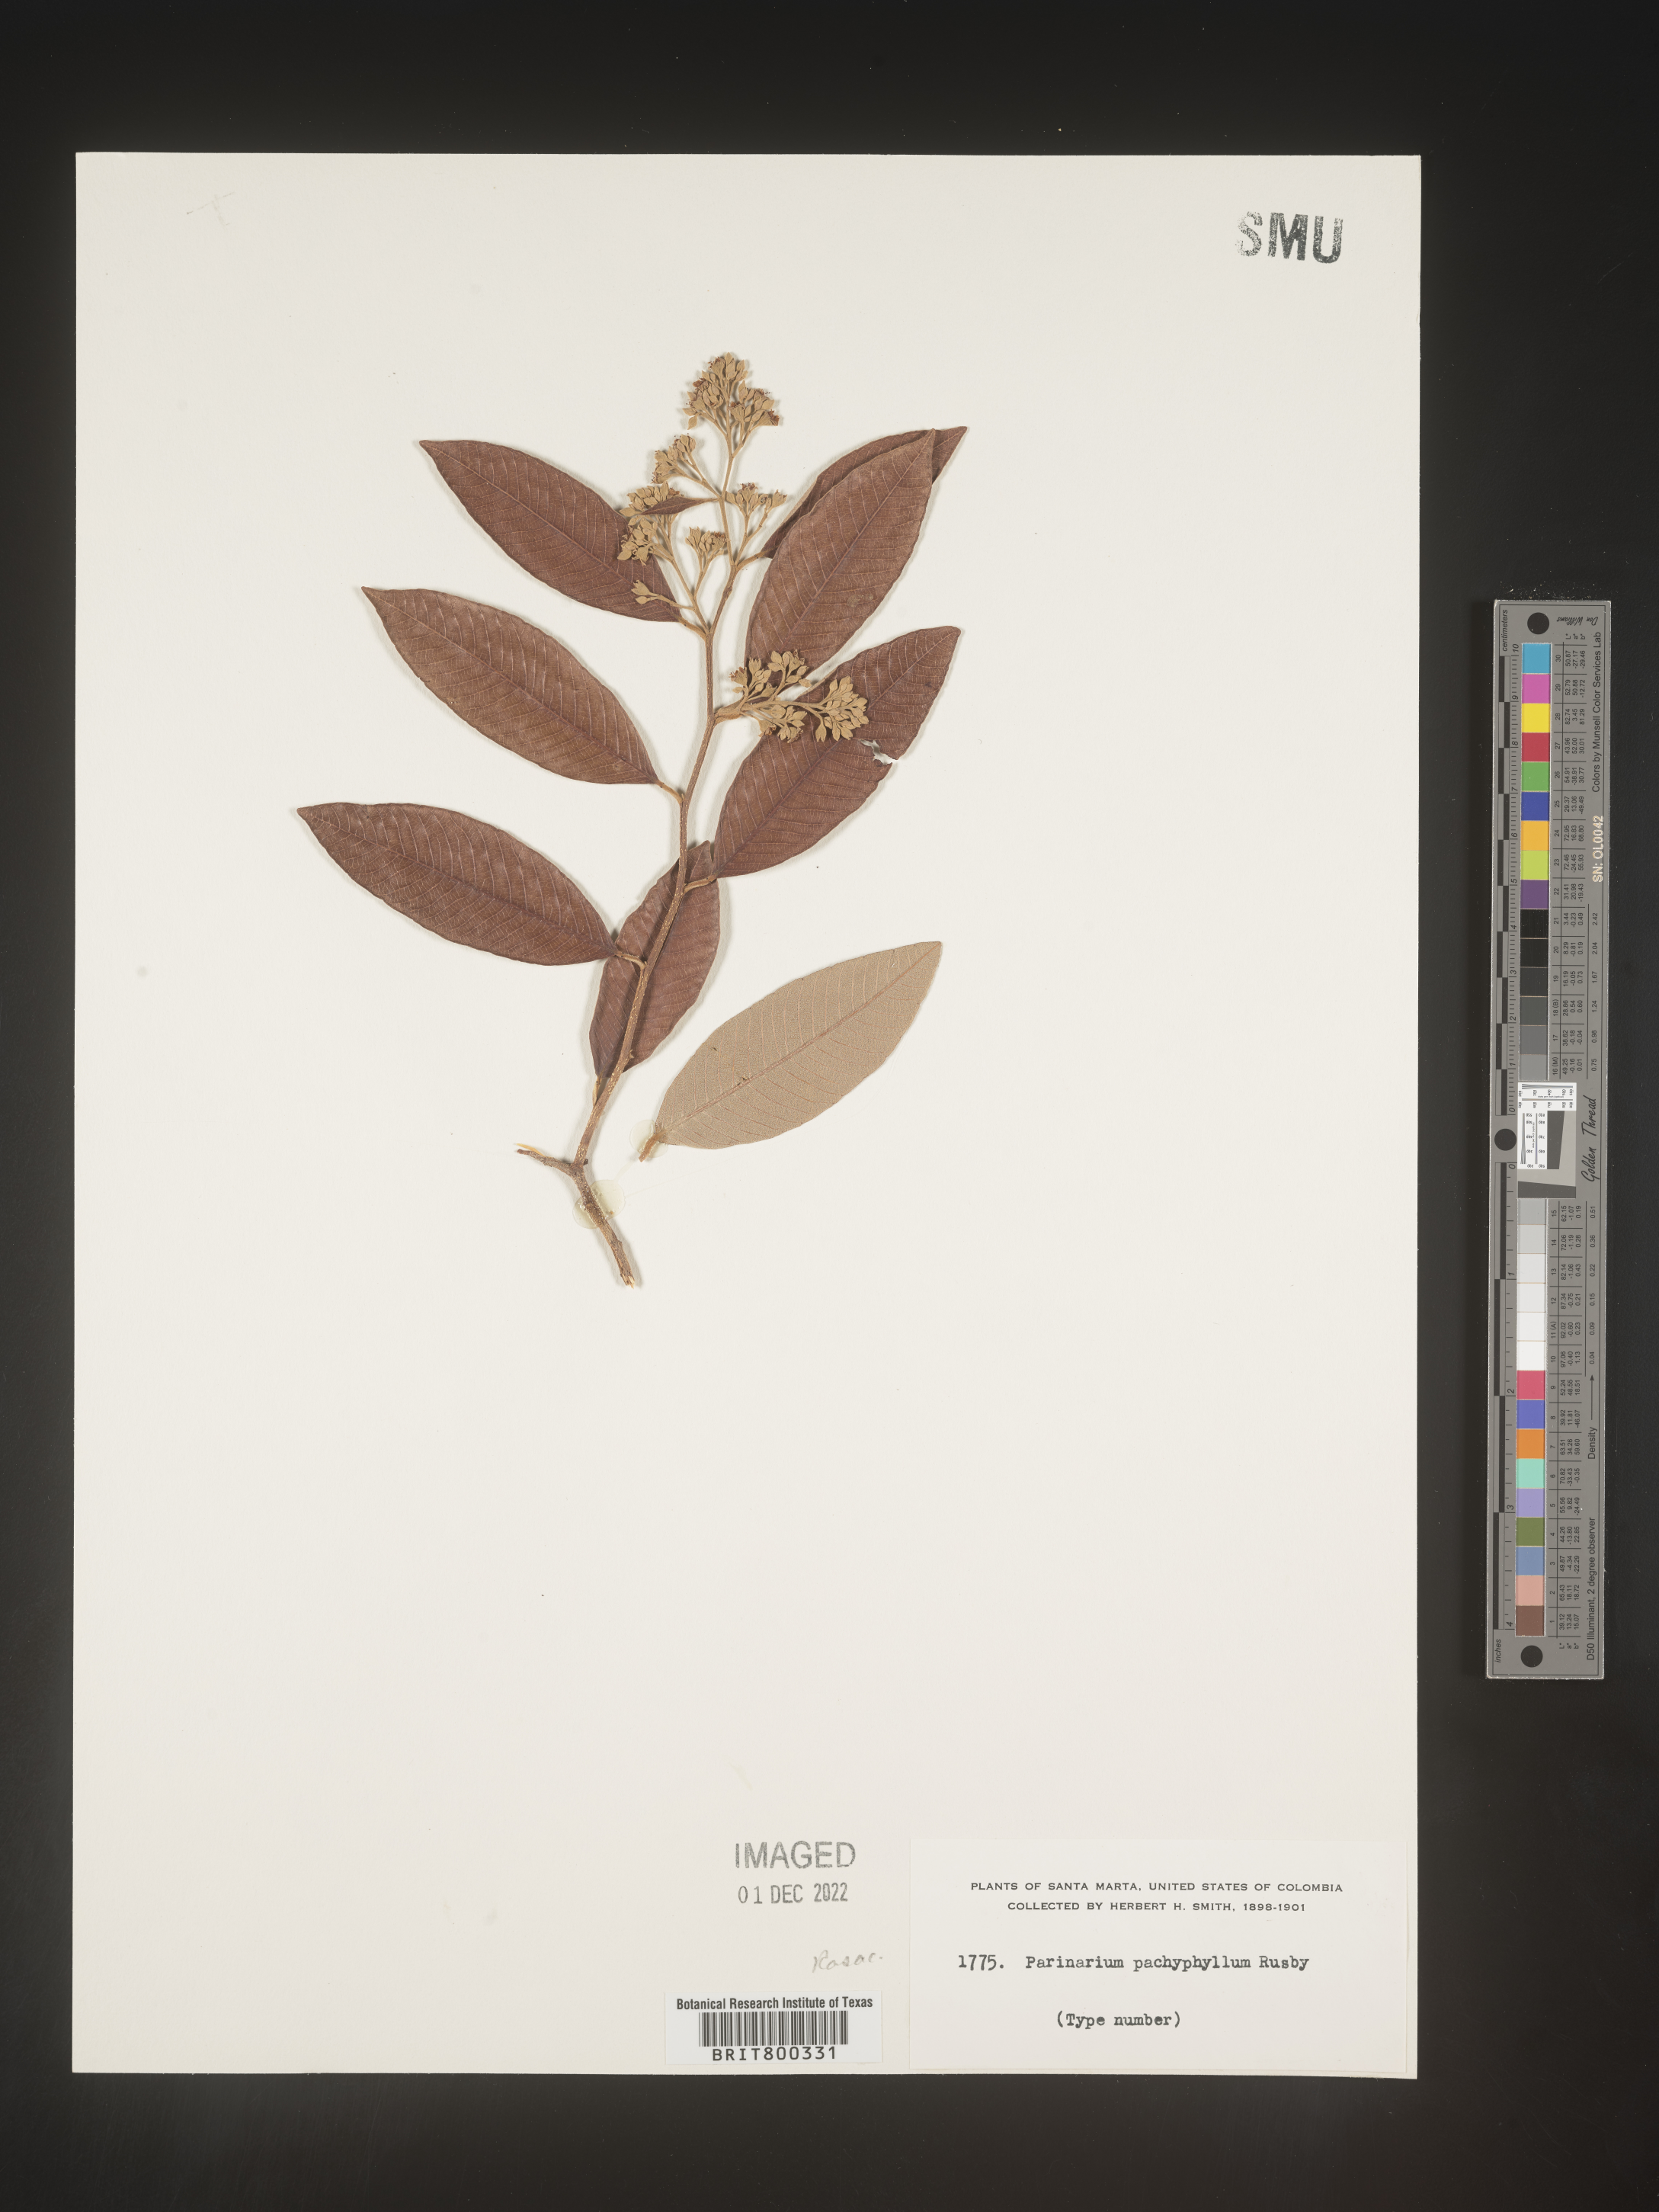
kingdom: Plantae
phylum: Tracheophyta
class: Magnoliopsida
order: Malpighiales
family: Chrysobalanaceae
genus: Parinari
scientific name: Parinari
